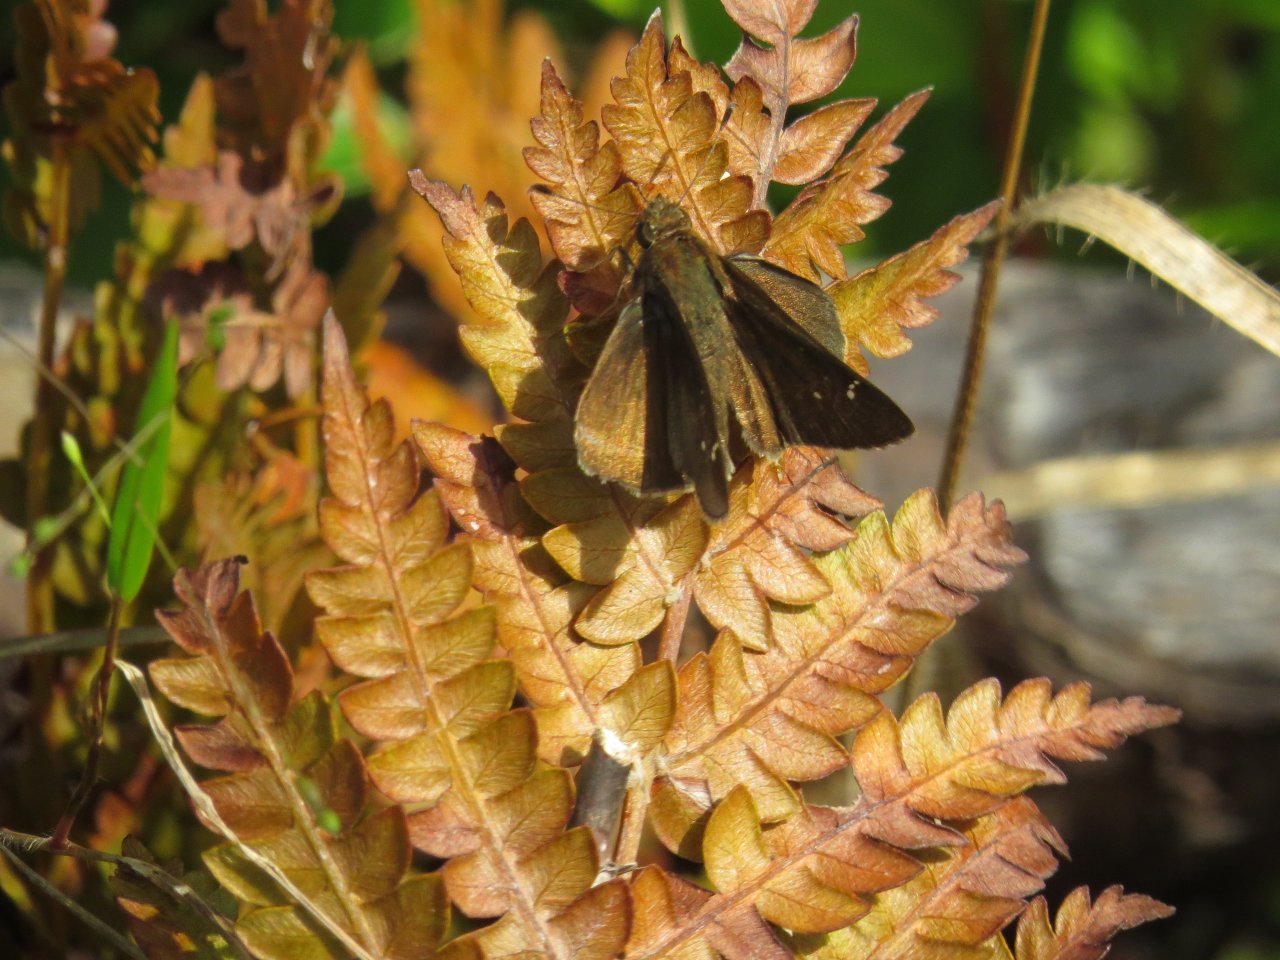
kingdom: Animalia
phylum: Arthropoda
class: Insecta
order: Lepidoptera
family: Hesperiidae
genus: Euphyes
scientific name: Euphyes vestris
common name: Dun Skipper
